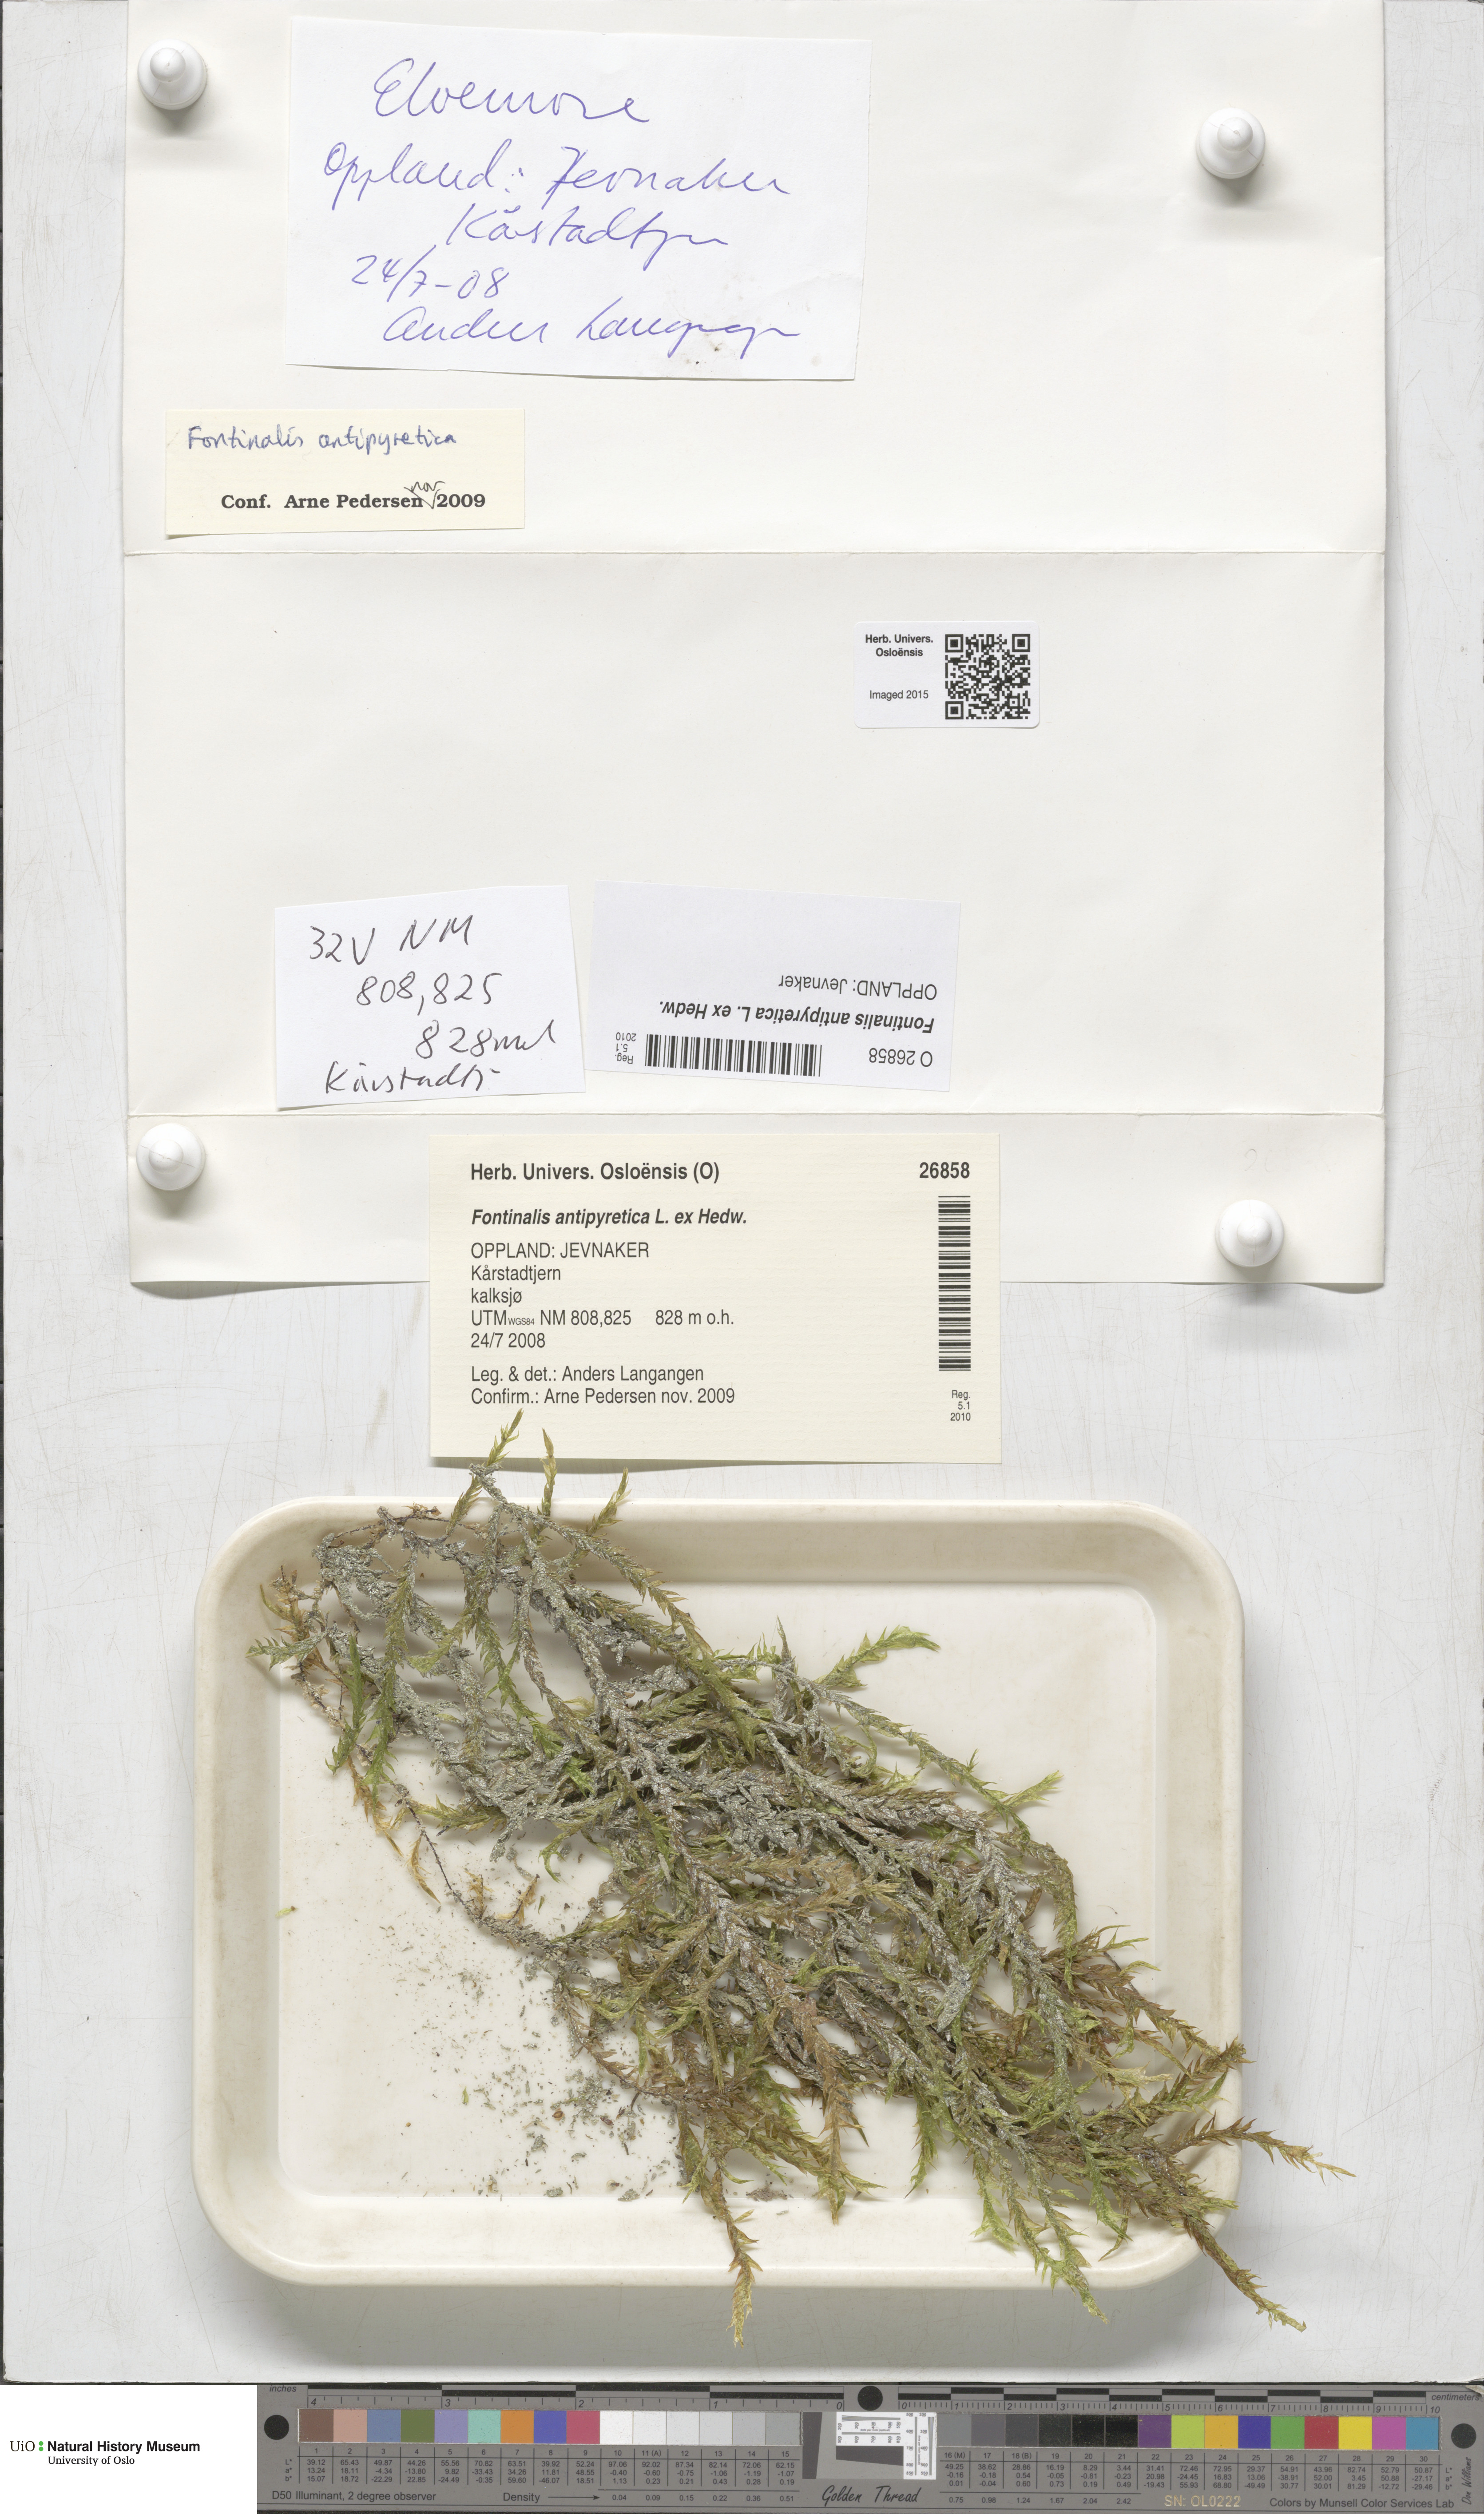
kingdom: Plantae
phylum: Bryophyta
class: Bryopsida
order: Hypnales
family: Fontinalaceae
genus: Fontinalis
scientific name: Fontinalis antipyretica
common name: Greater water-moss
